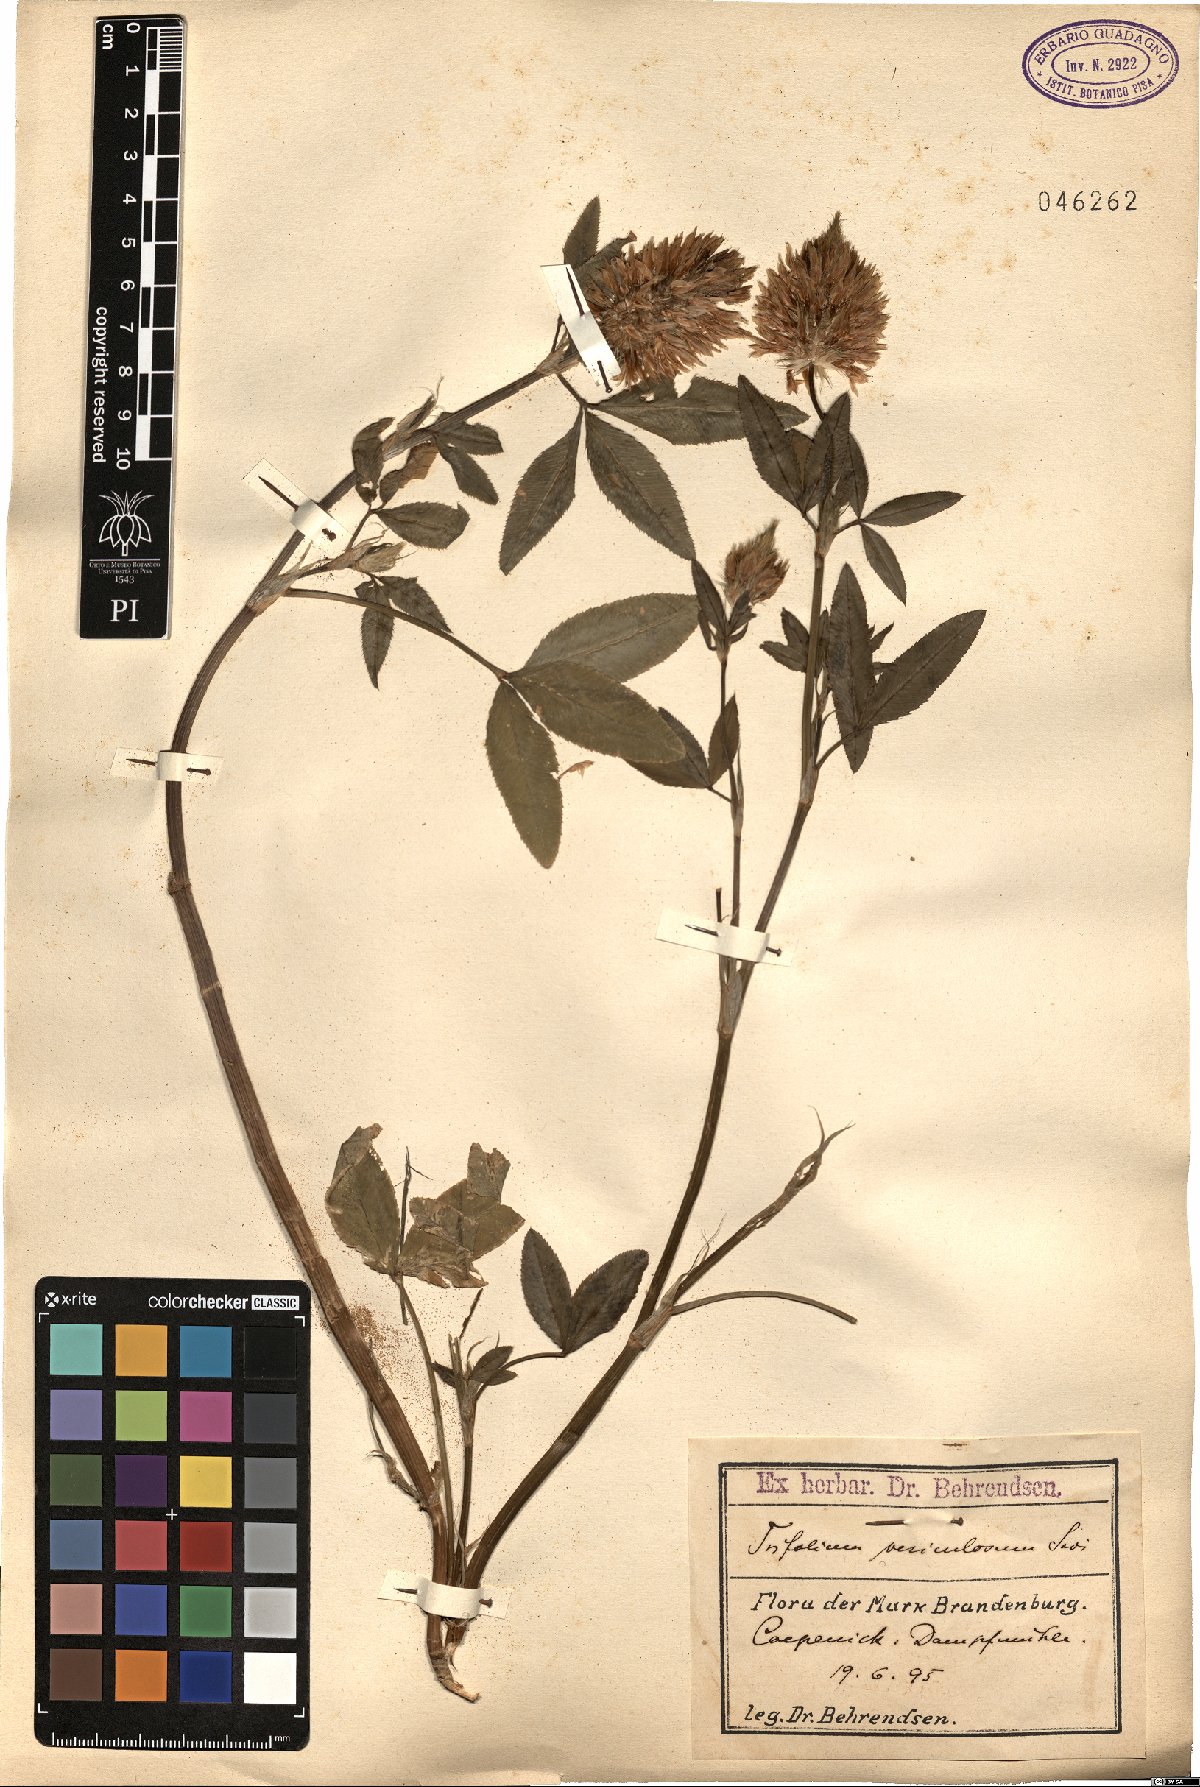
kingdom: Plantae
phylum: Tracheophyta
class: Magnoliopsida
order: Fabales
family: Fabaceae
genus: Trifolium
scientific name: Trifolium vesiculosum
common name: Arrowleaf clover
